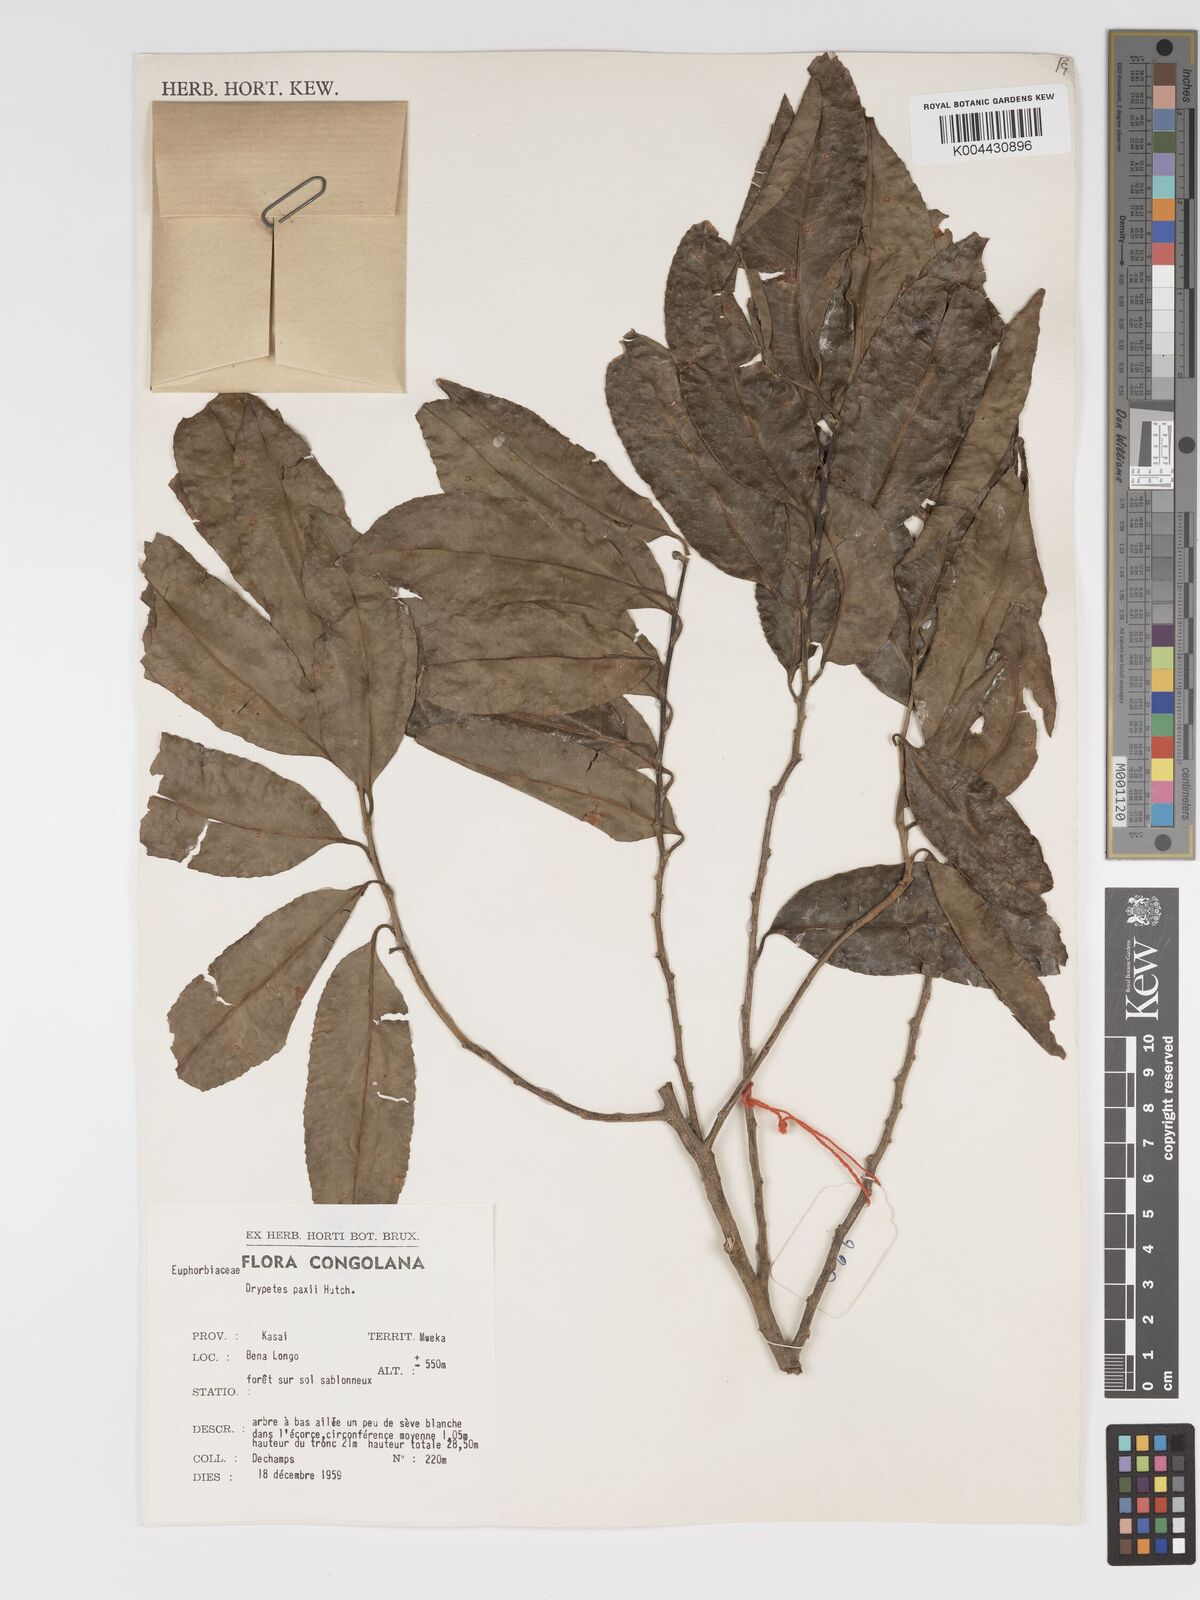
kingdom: Plantae
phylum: Tracheophyta
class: Magnoliopsida
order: Malpighiales
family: Putranjivaceae
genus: Drypetes
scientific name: Drypetes paxii
